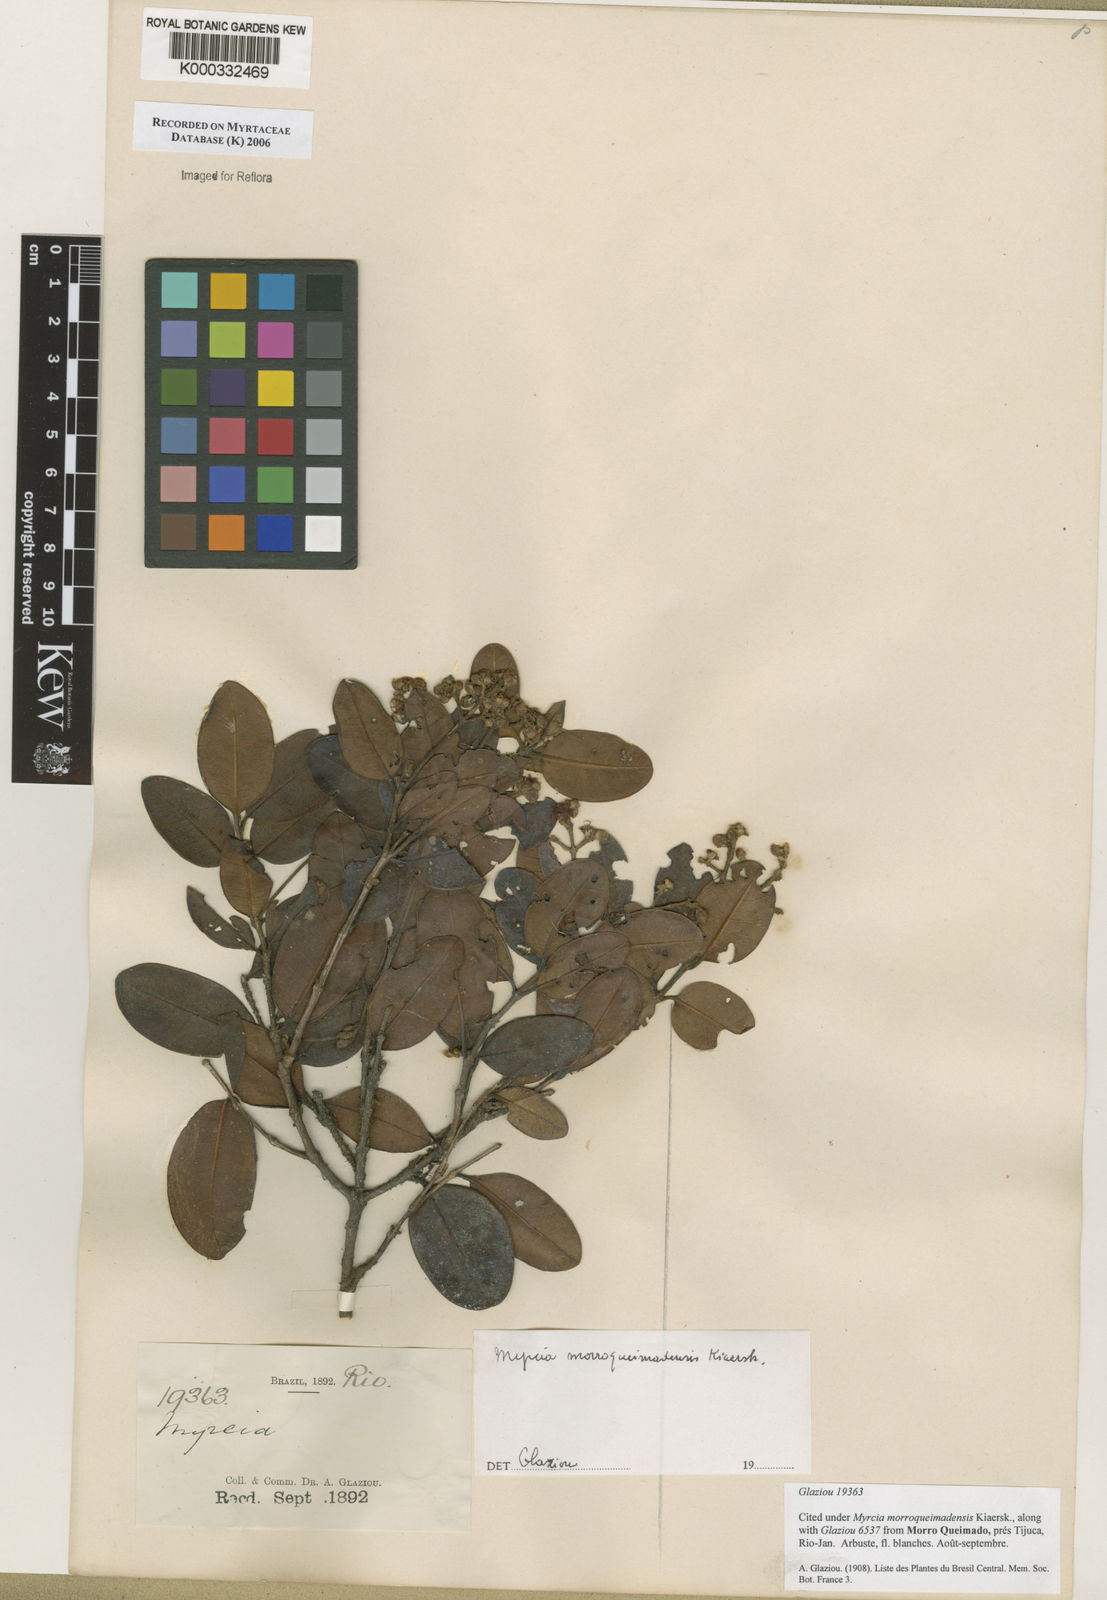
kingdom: Plantae
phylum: Tracheophyta
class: Magnoliopsida
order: Myrtales
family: Myrtaceae
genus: Myrcia
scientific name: Myrcia morroqueimadensis
